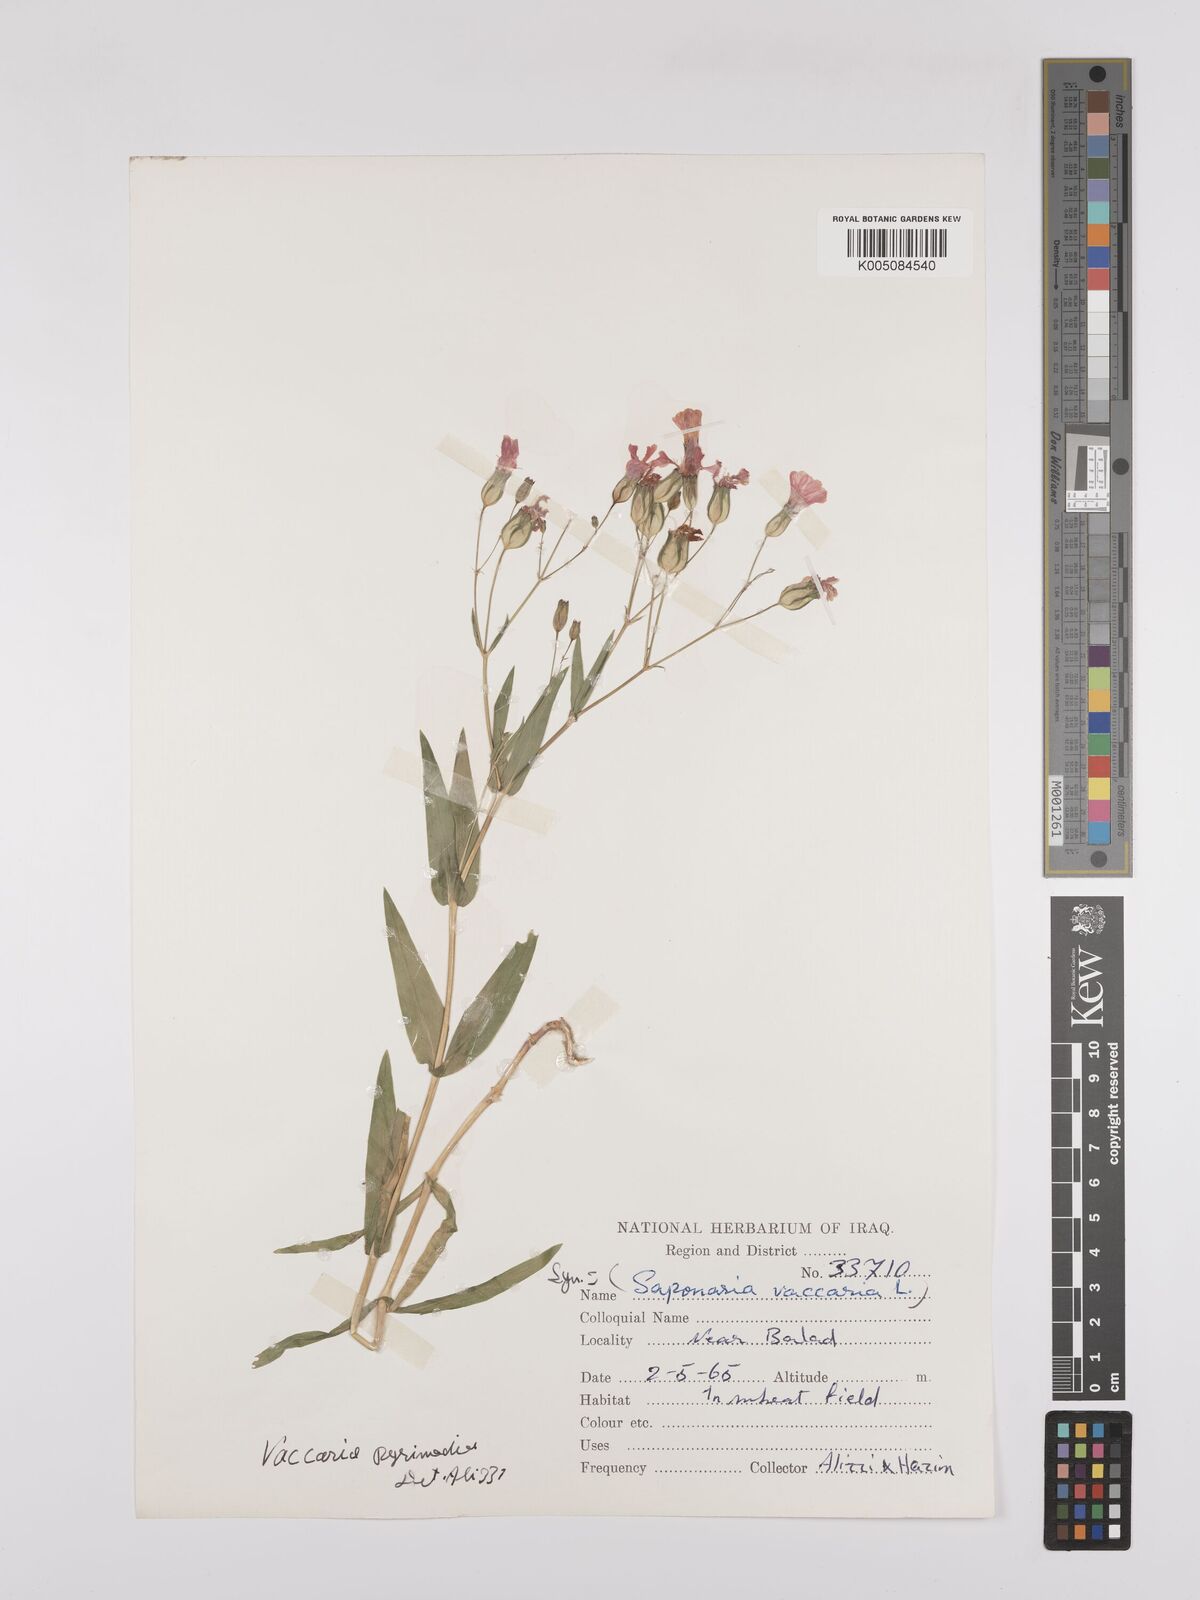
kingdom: Plantae
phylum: Tracheophyta
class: Magnoliopsida
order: Caryophyllales
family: Caryophyllaceae
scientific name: Caryophyllaceae
